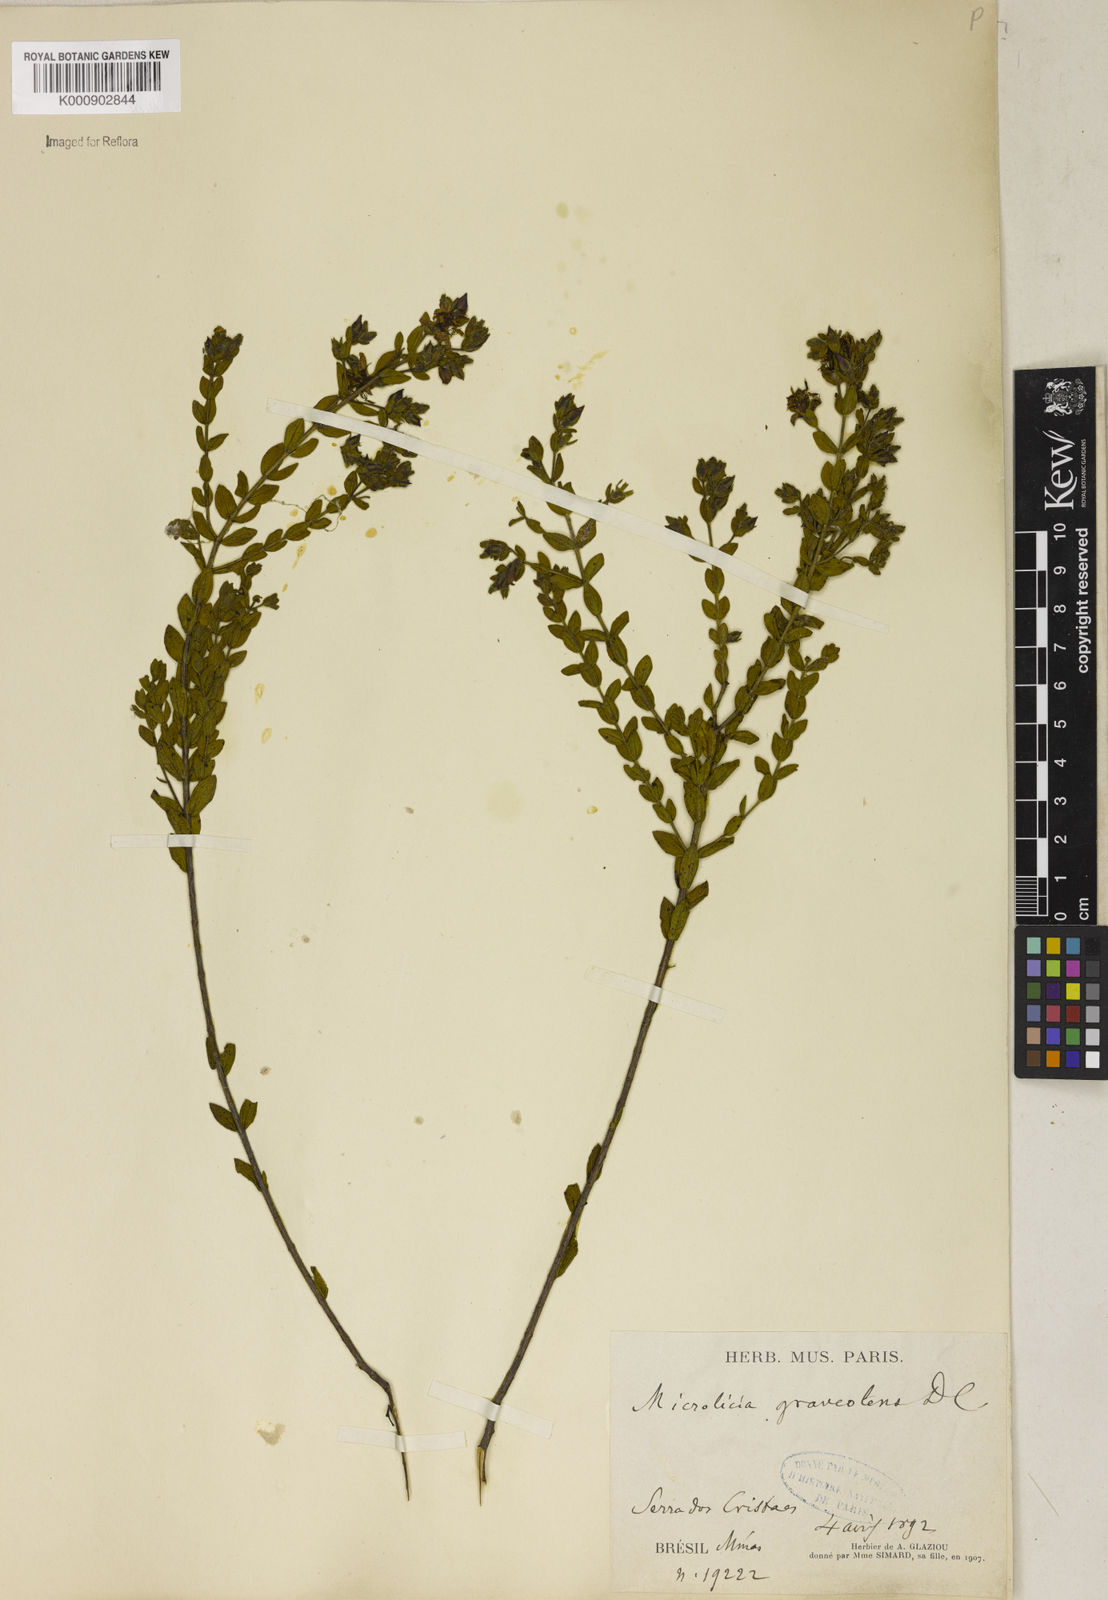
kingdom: Plantae
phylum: Tracheophyta
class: Magnoliopsida
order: Malpighiales
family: Podostemaceae
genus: Diamantina
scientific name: Diamantina
